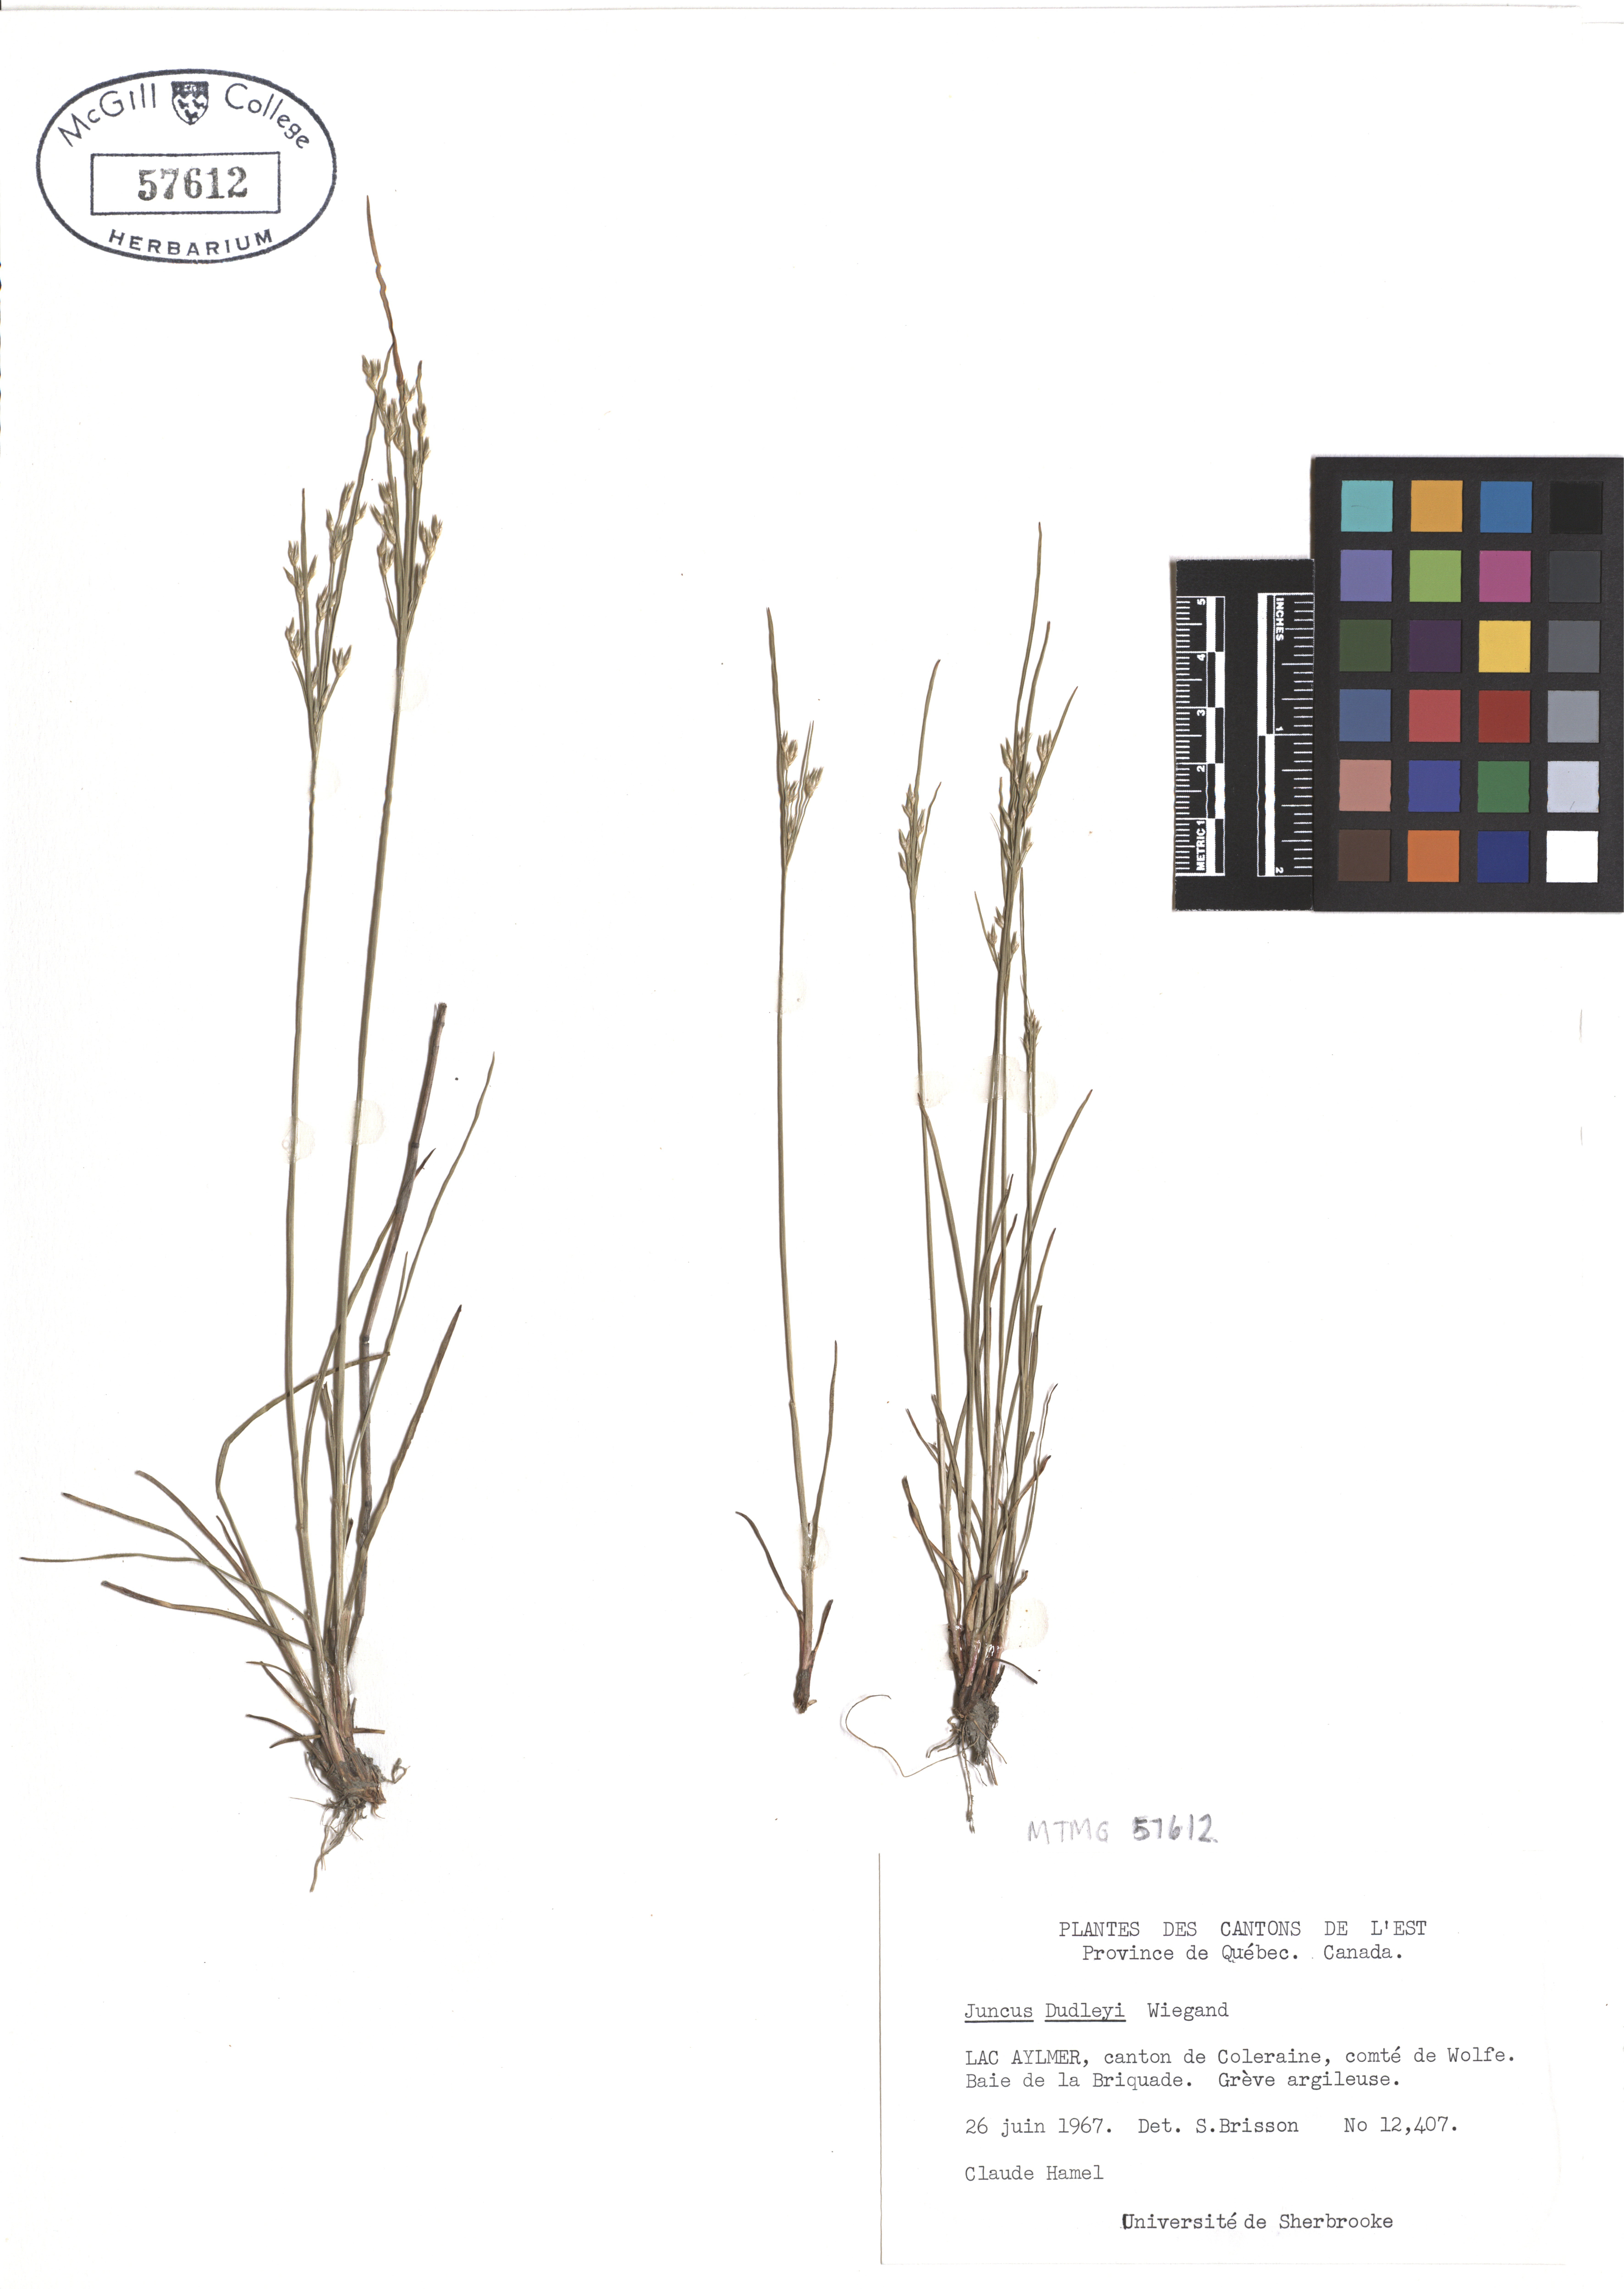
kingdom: Plantae
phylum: Tracheophyta
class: Liliopsida
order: Poales
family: Juncaceae
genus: Juncus
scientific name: Juncus dudleyi
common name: Dudley's rush
